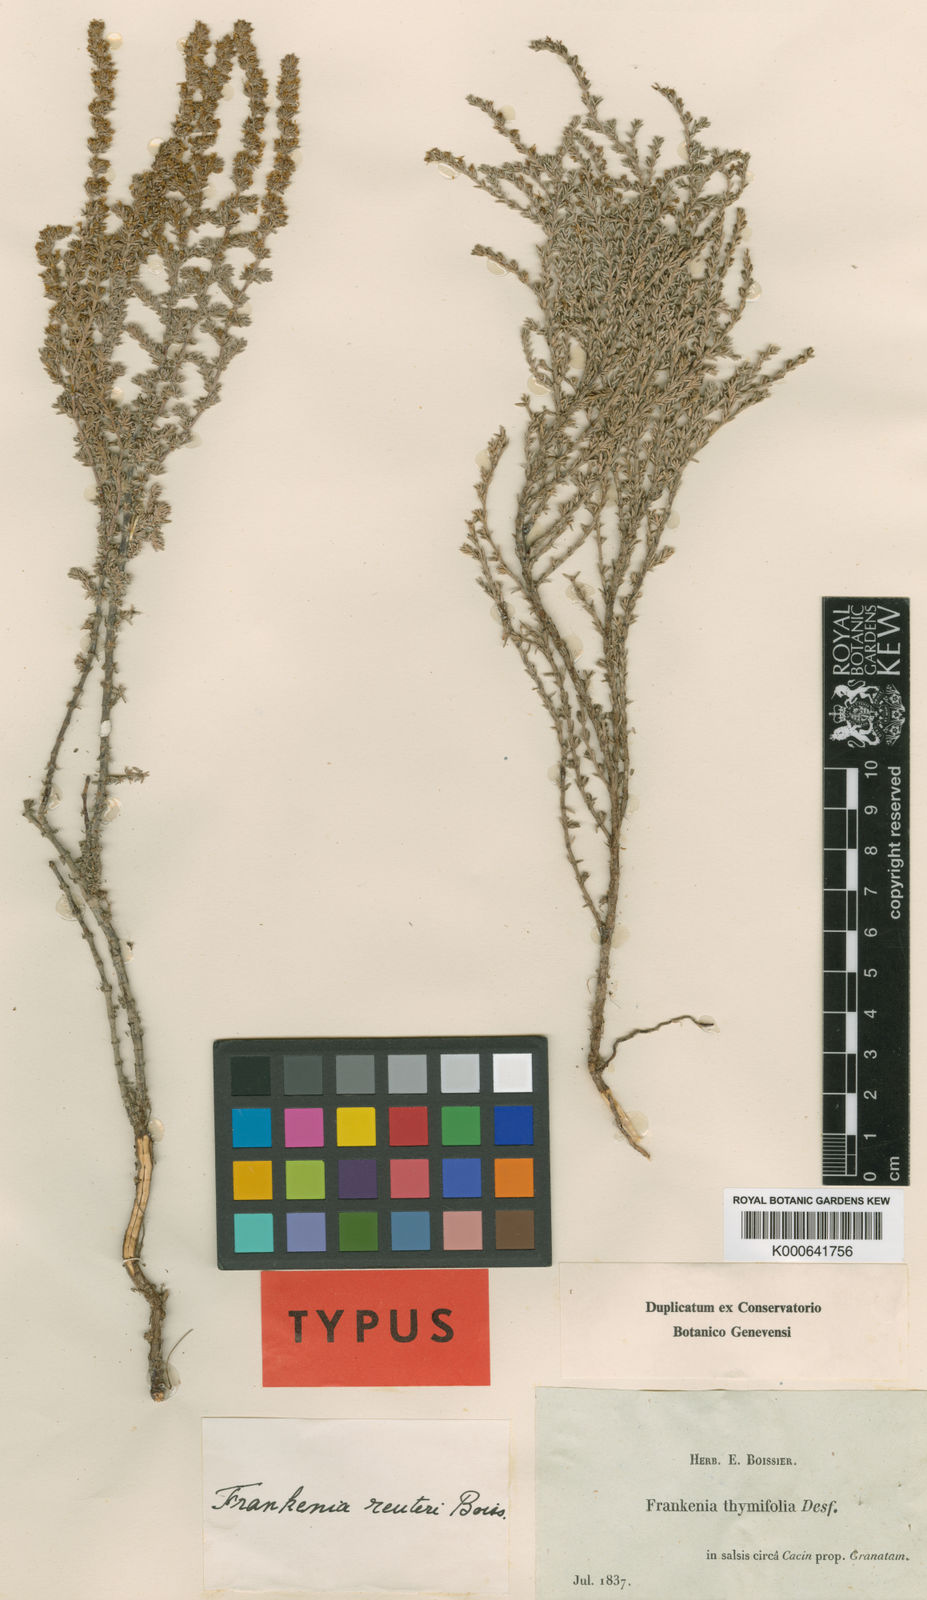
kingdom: Plantae
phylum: Tracheophyta
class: Magnoliopsida
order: Caryophyllales
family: Frankeniaceae
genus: Frankenia
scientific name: Frankenia thymifolia
